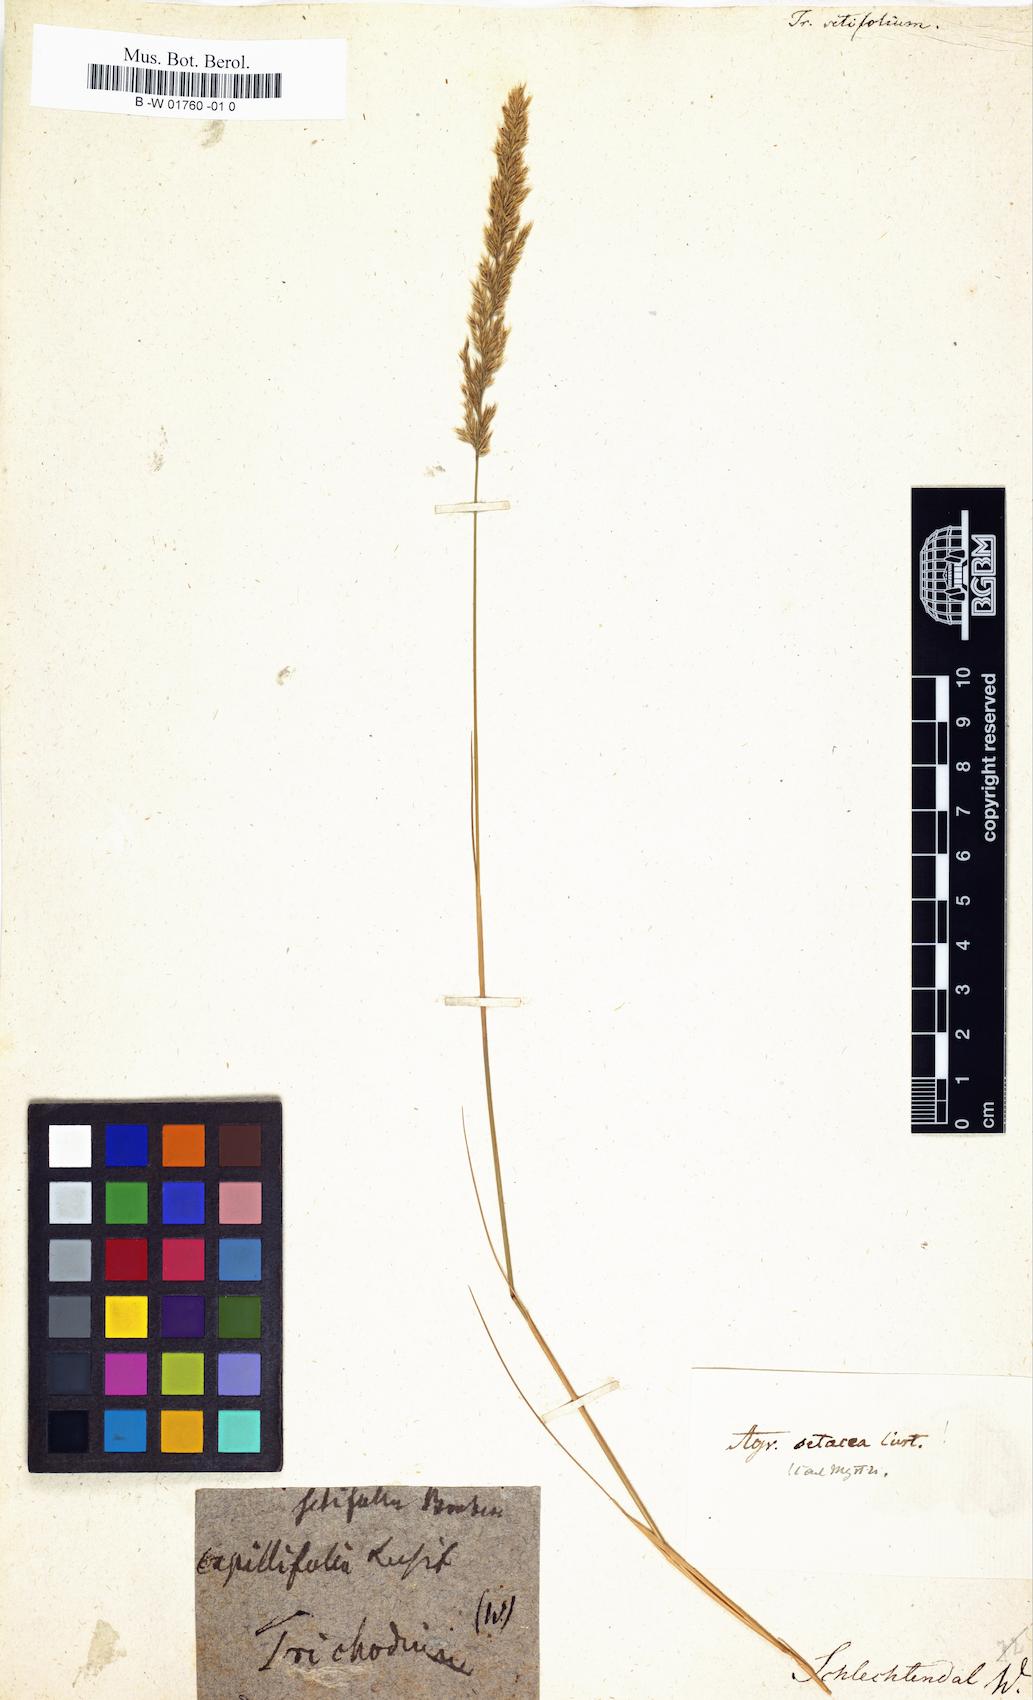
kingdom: Plantae
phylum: Tracheophyta
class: Liliopsida
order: Poales
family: Poaceae
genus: Alpagrostis
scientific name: Alpagrostis setacea
